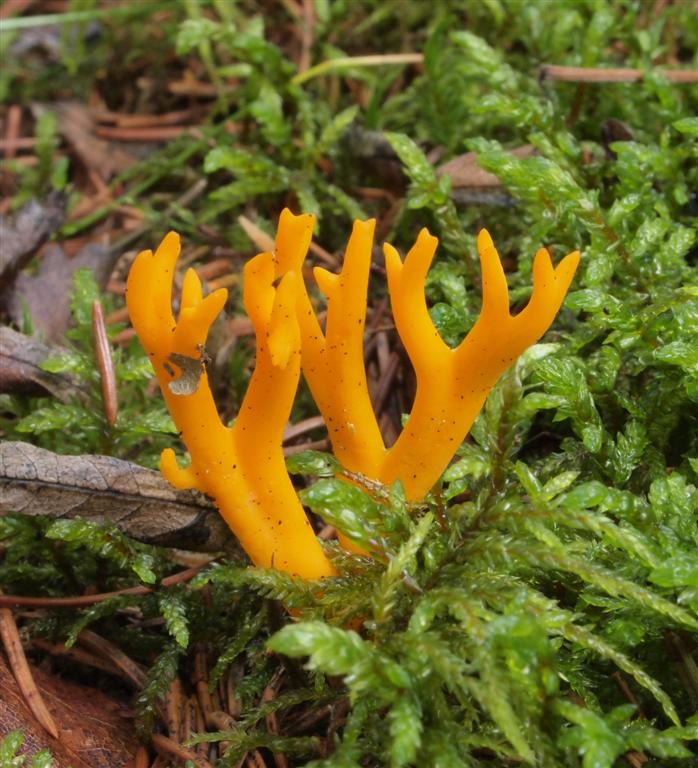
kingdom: Fungi
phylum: Basidiomycota
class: Dacrymycetes
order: Dacrymycetales
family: Dacrymycetaceae
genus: Calocera
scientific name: Calocera viscosa
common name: almindelig guldgaffel
